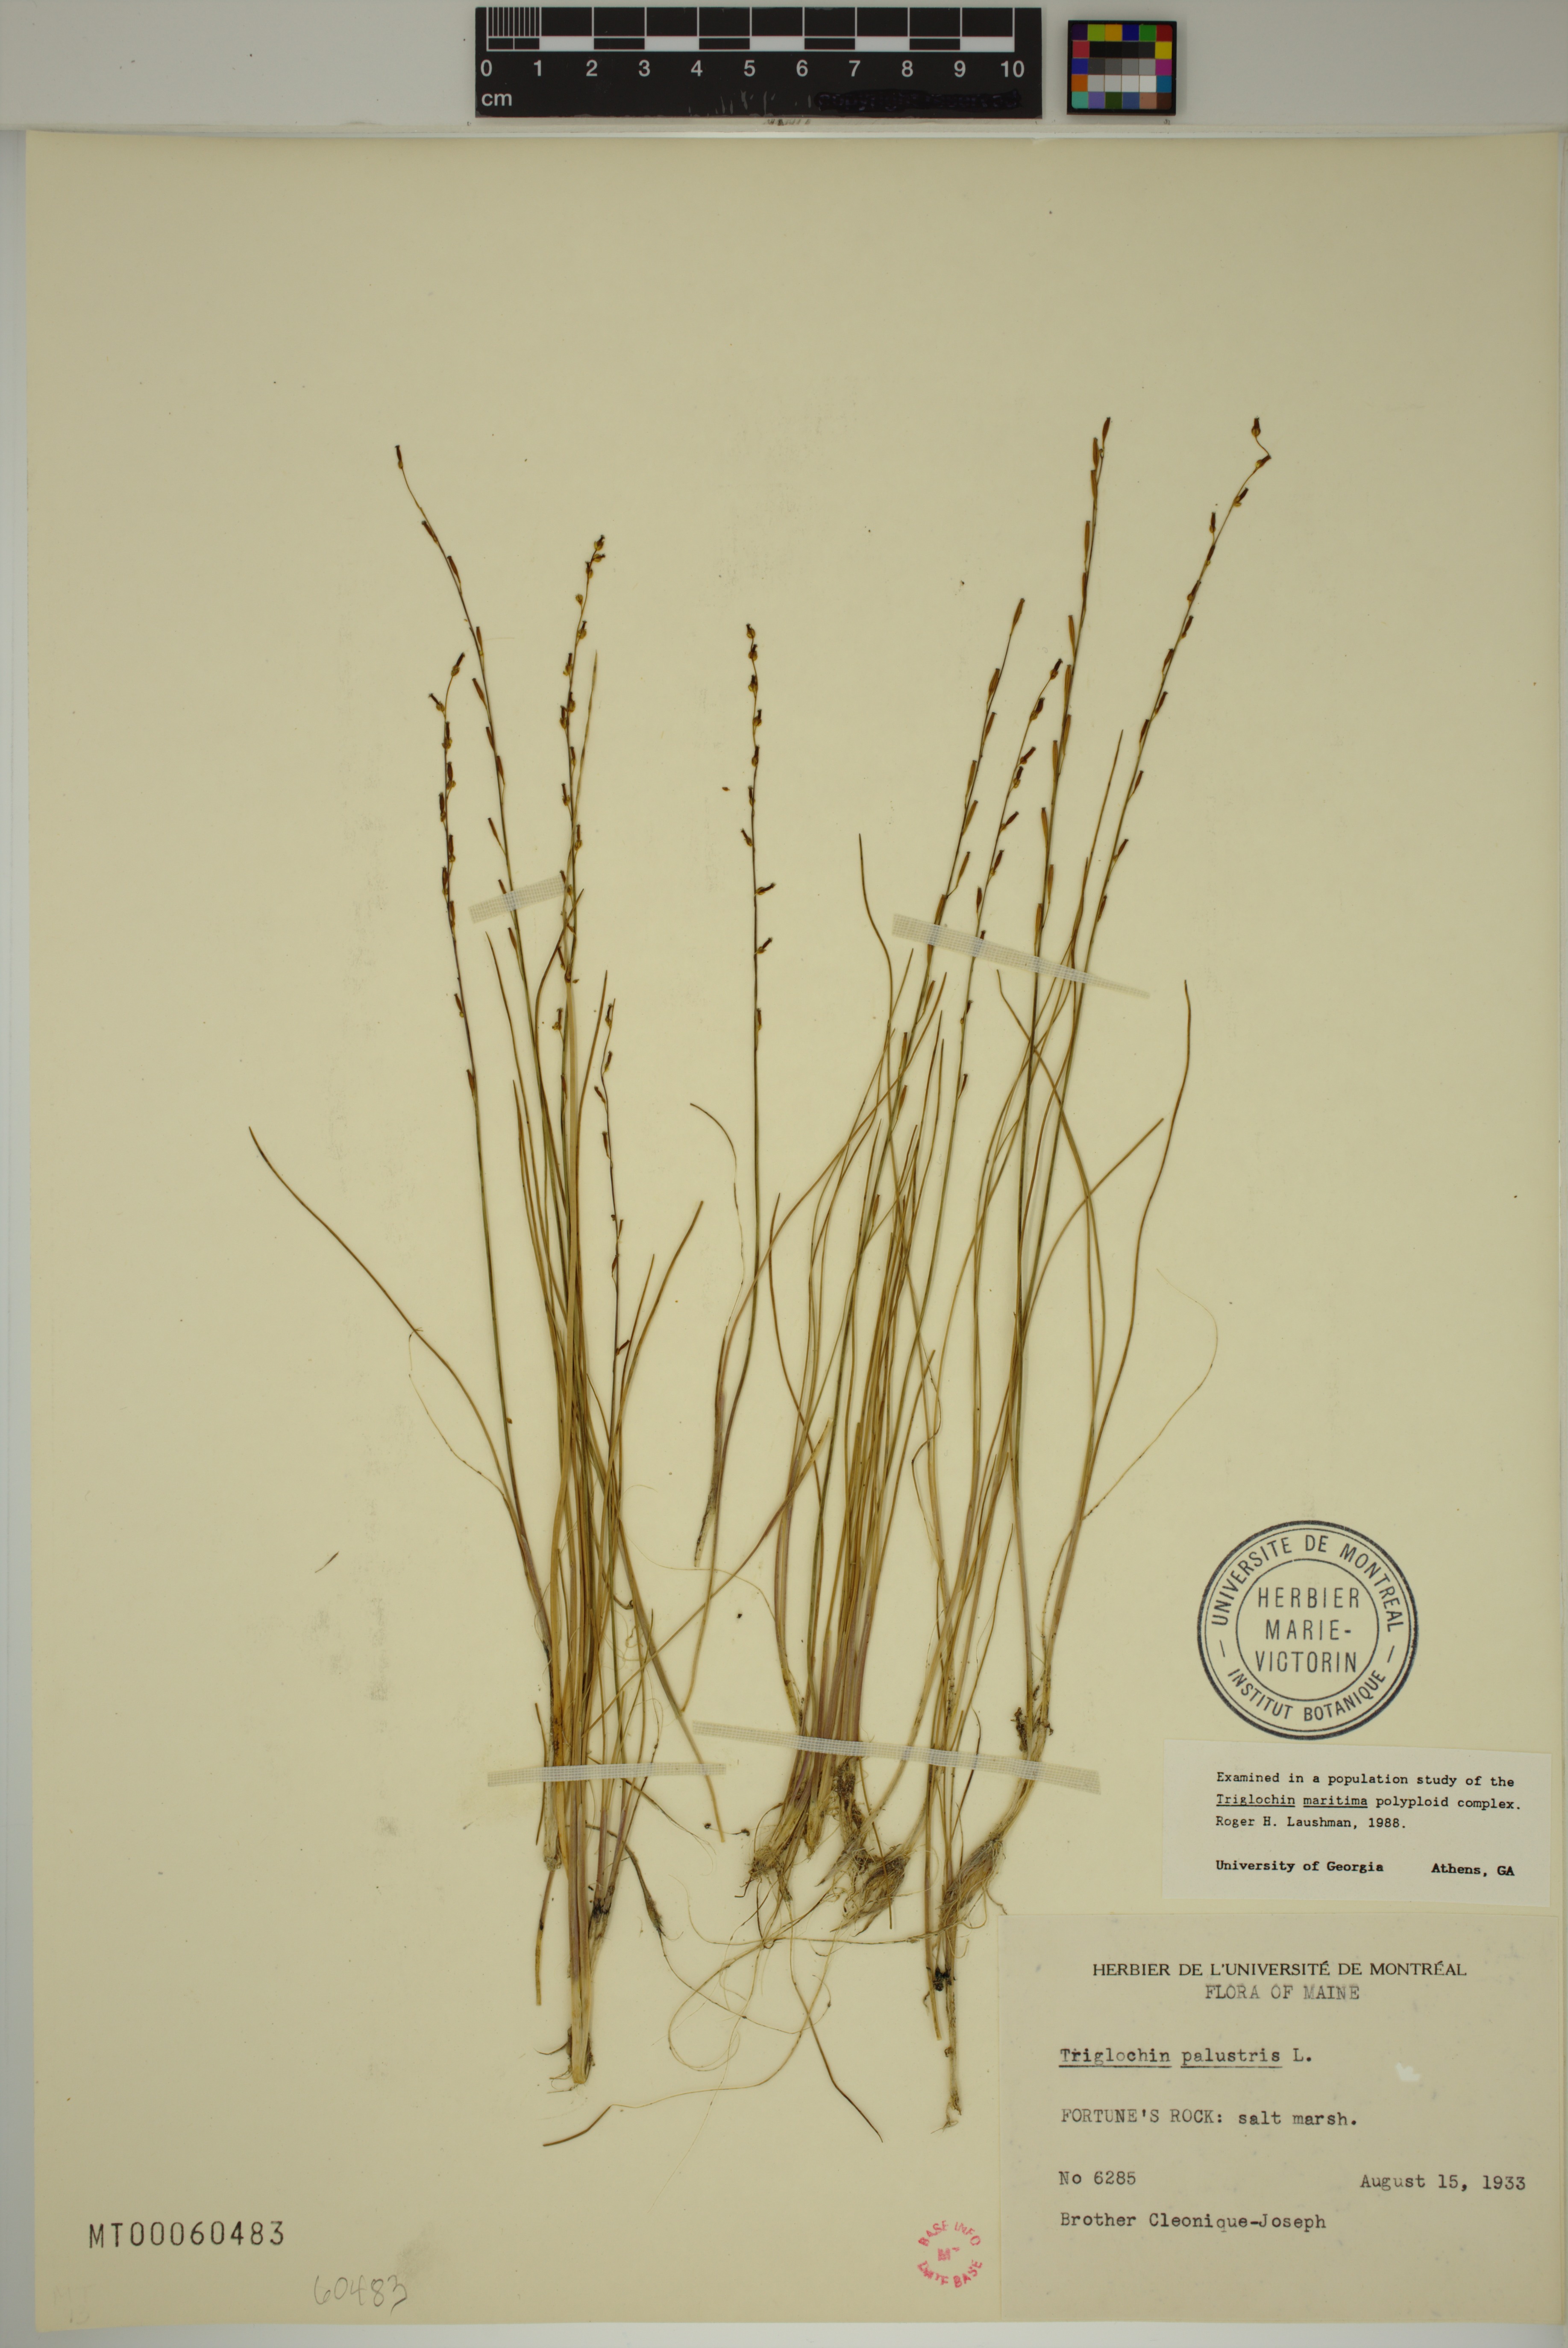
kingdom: Plantae
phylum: Tracheophyta
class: Liliopsida
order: Alismatales
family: Juncaginaceae
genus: Triglochin
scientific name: Triglochin palustris
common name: Marsh arrowgrass
